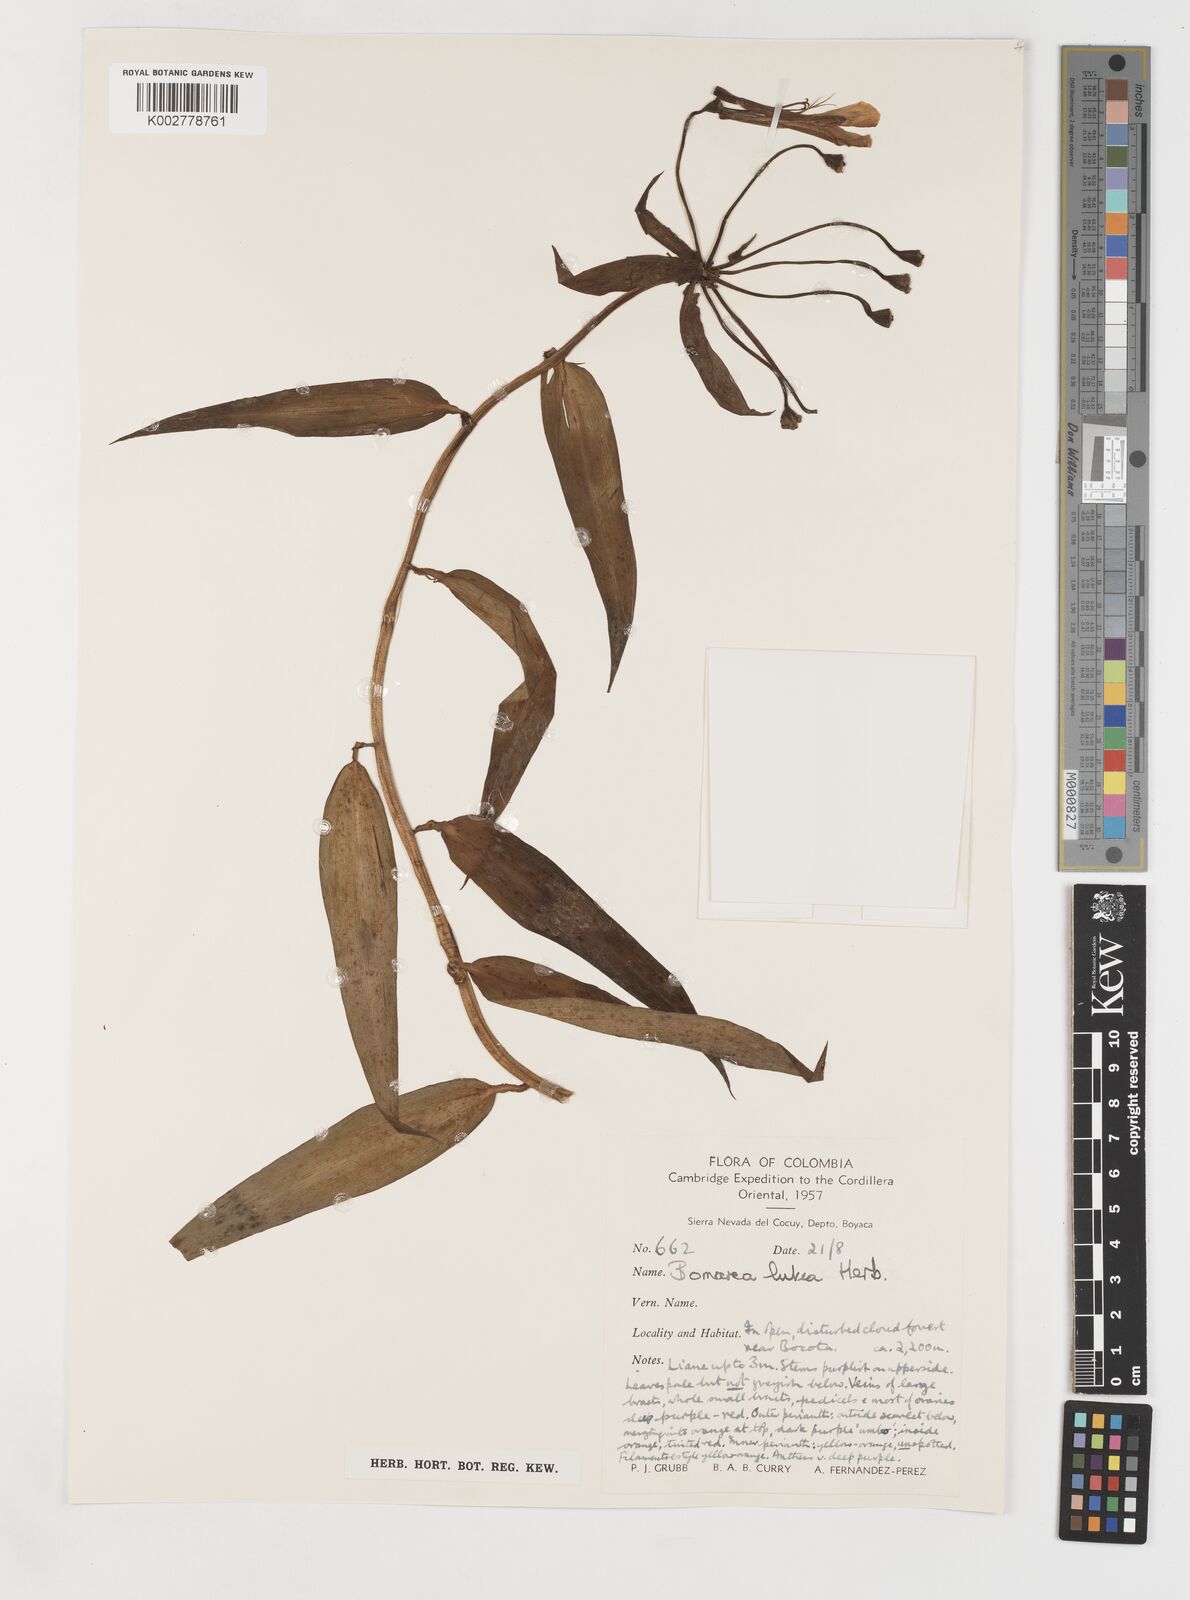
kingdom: Plantae
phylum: Tracheophyta
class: Liliopsida
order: Liliales
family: Alstroemeriaceae
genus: Bomarea
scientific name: Bomarea lutea
